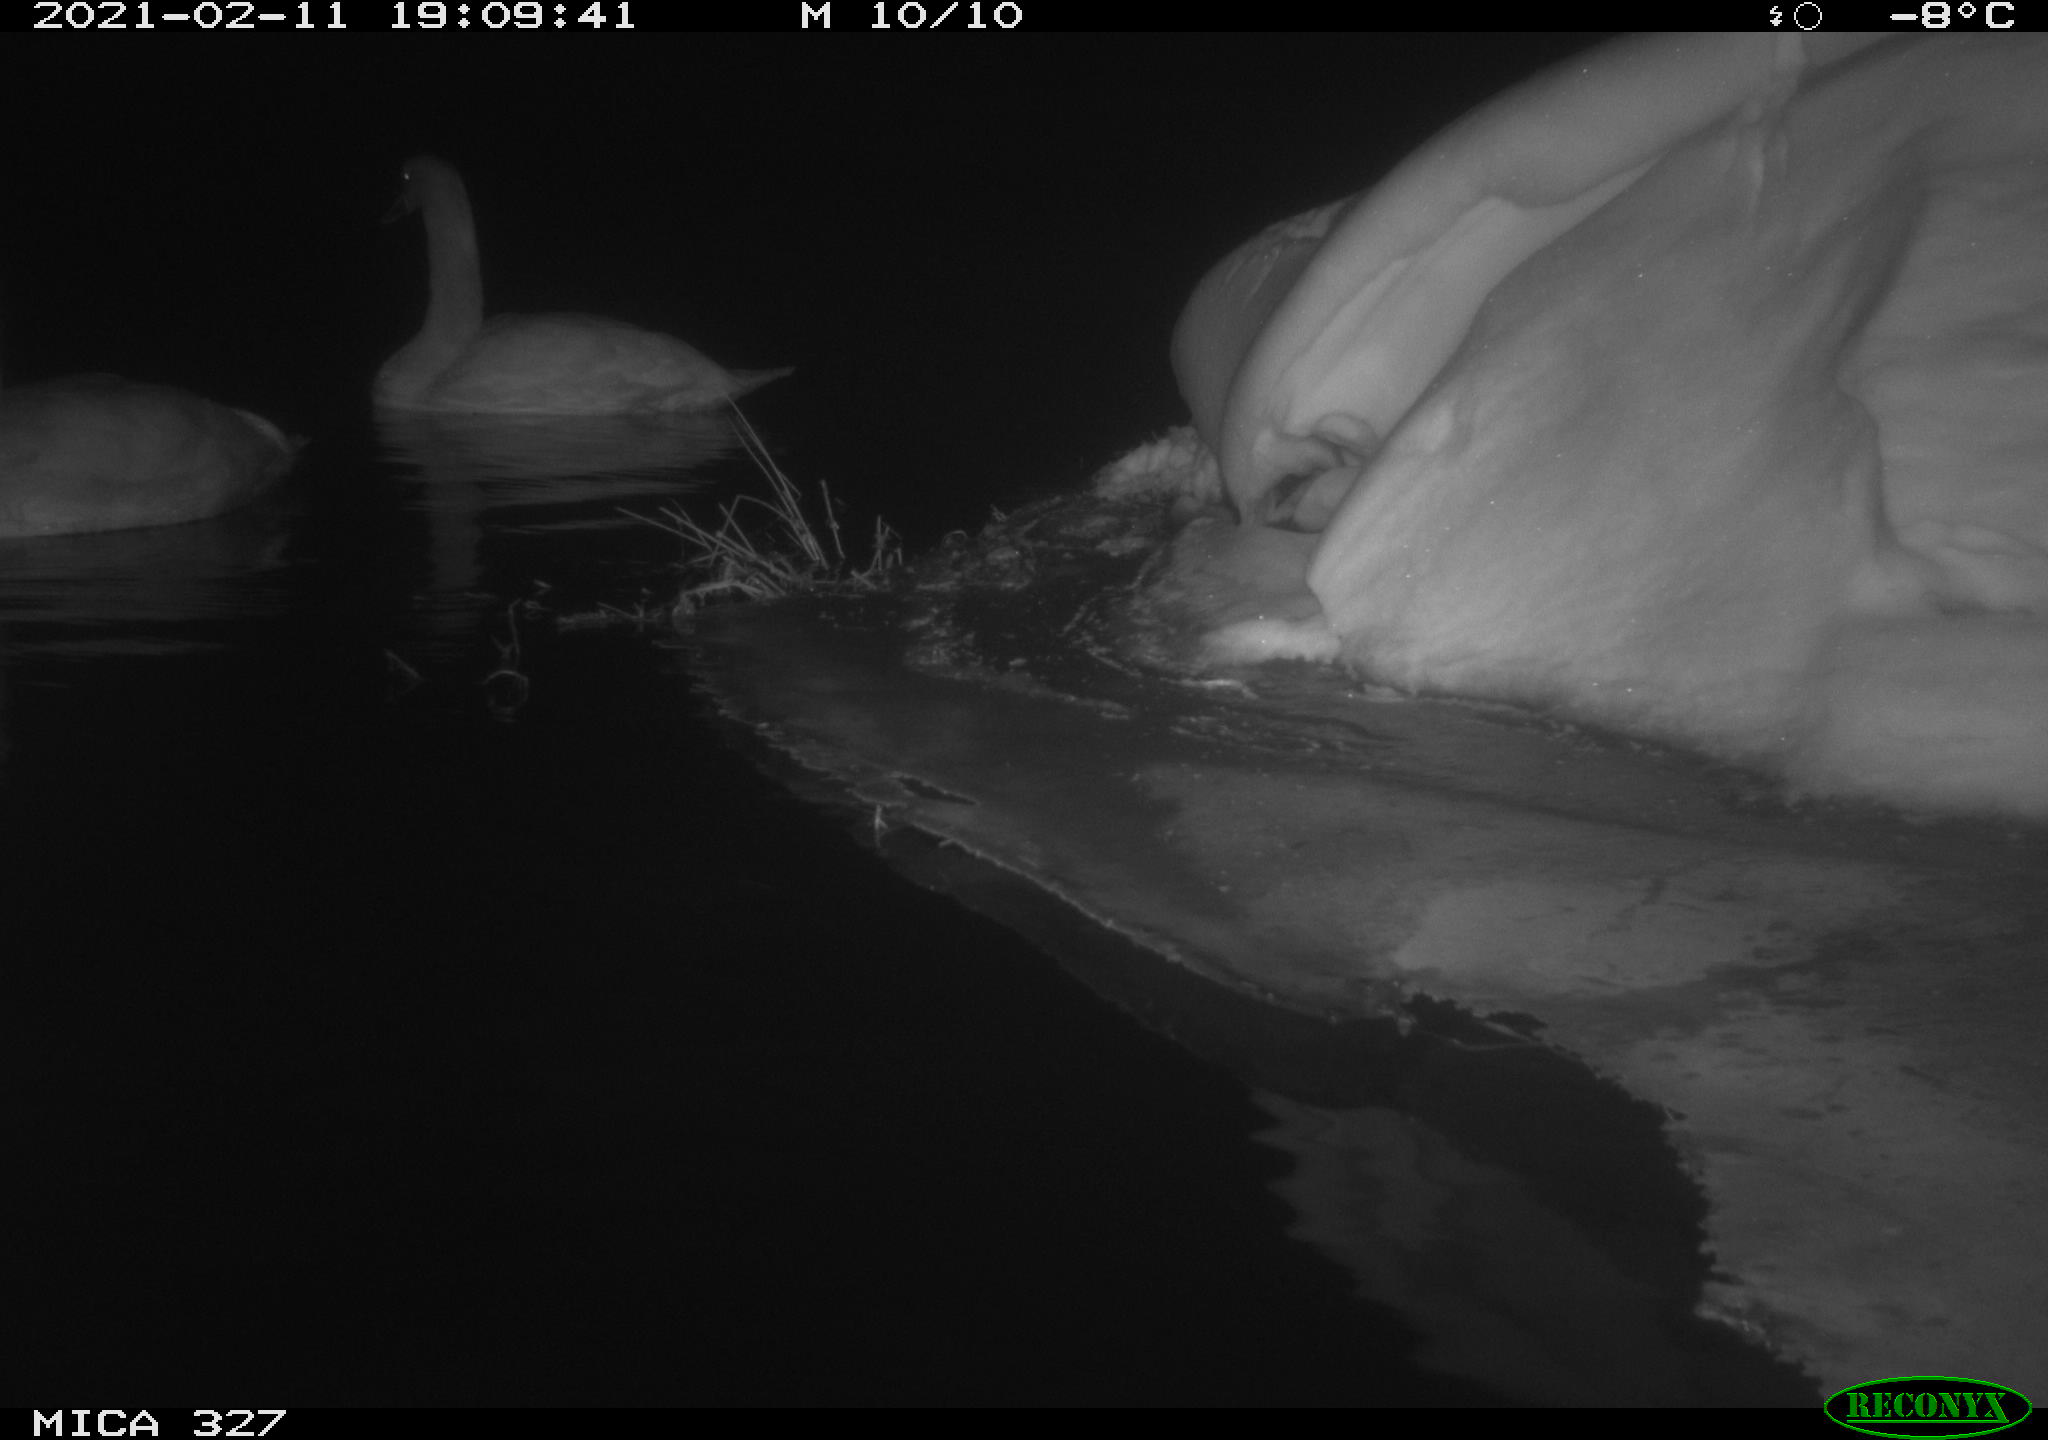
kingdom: Animalia
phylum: Chordata
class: Aves
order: Anseriformes
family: Anatidae
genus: Cygnus
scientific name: Cygnus olor
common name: Mute swan
